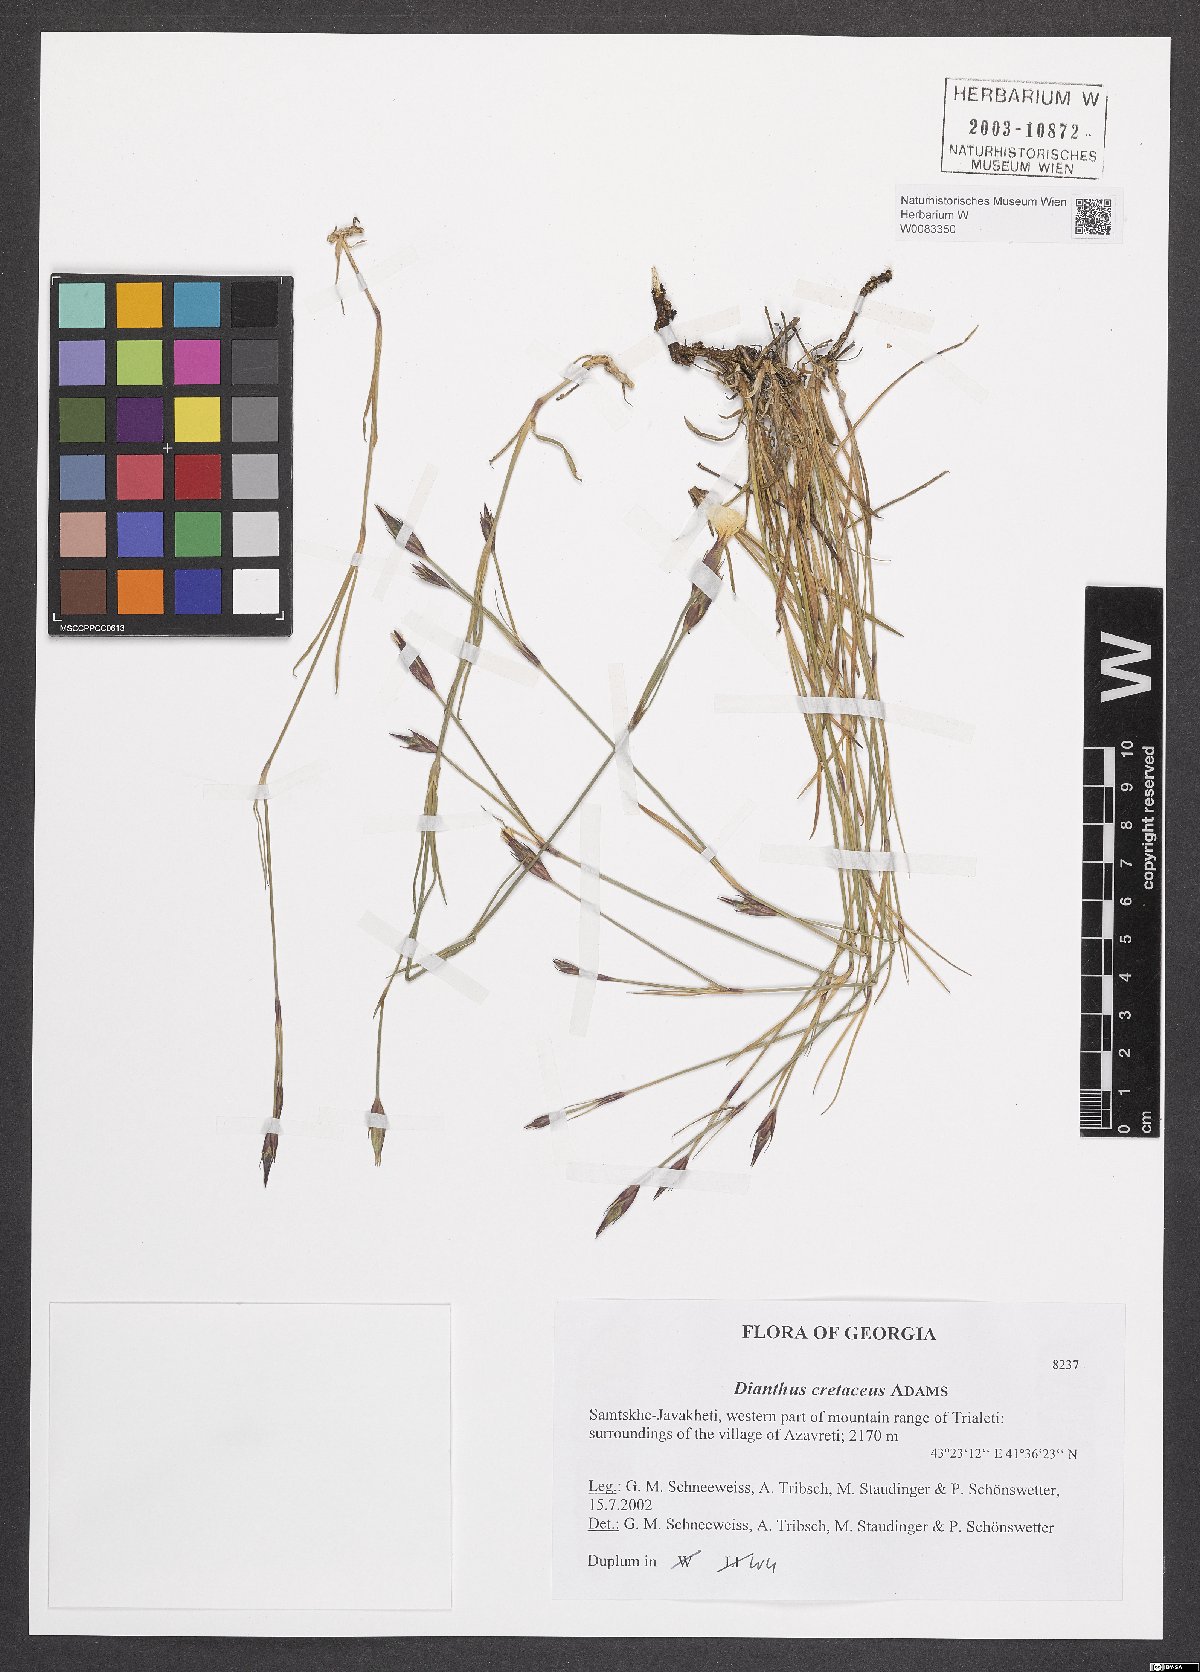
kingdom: Plantae
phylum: Tracheophyta
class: Magnoliopsida
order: Caryophyllales
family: Caryophyllaceae
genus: Dianthus
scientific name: Dianthus cretaceus
